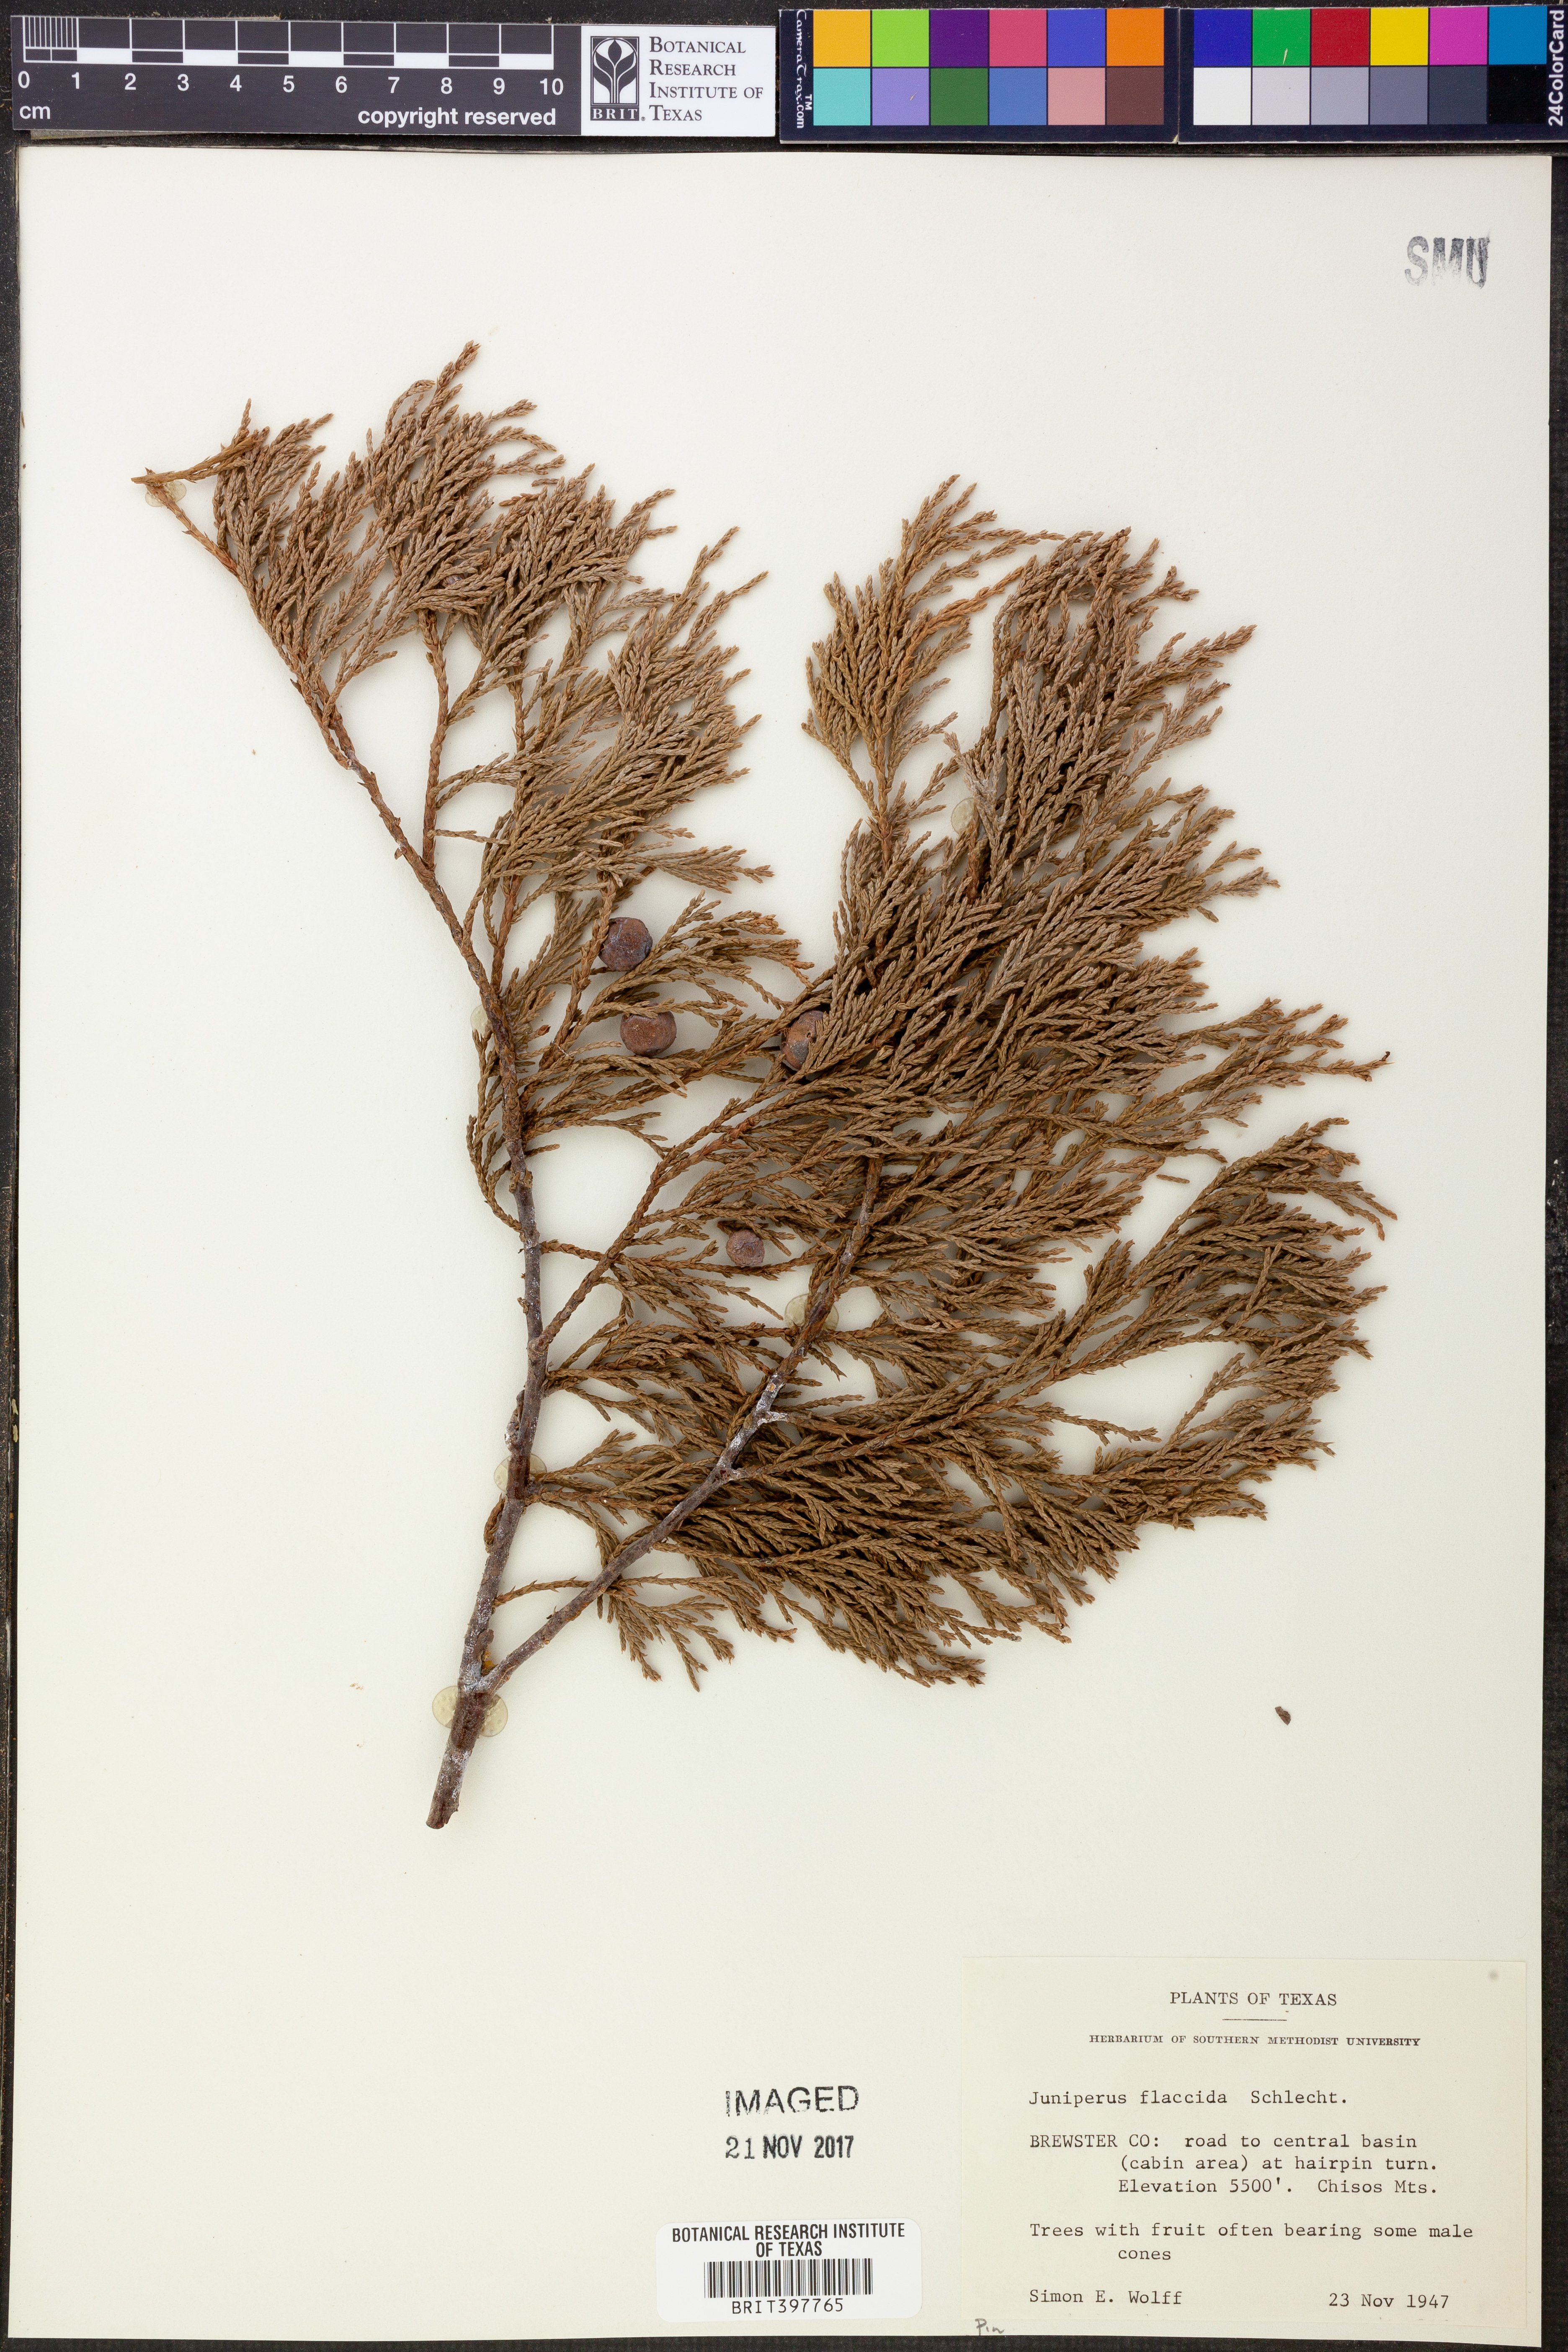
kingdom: Plantae
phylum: Tracheophyta
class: Pinopsida
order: Pinales
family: Cupressaceae
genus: Juniperus
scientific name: Juniperus flaccida
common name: Drooping juniper
